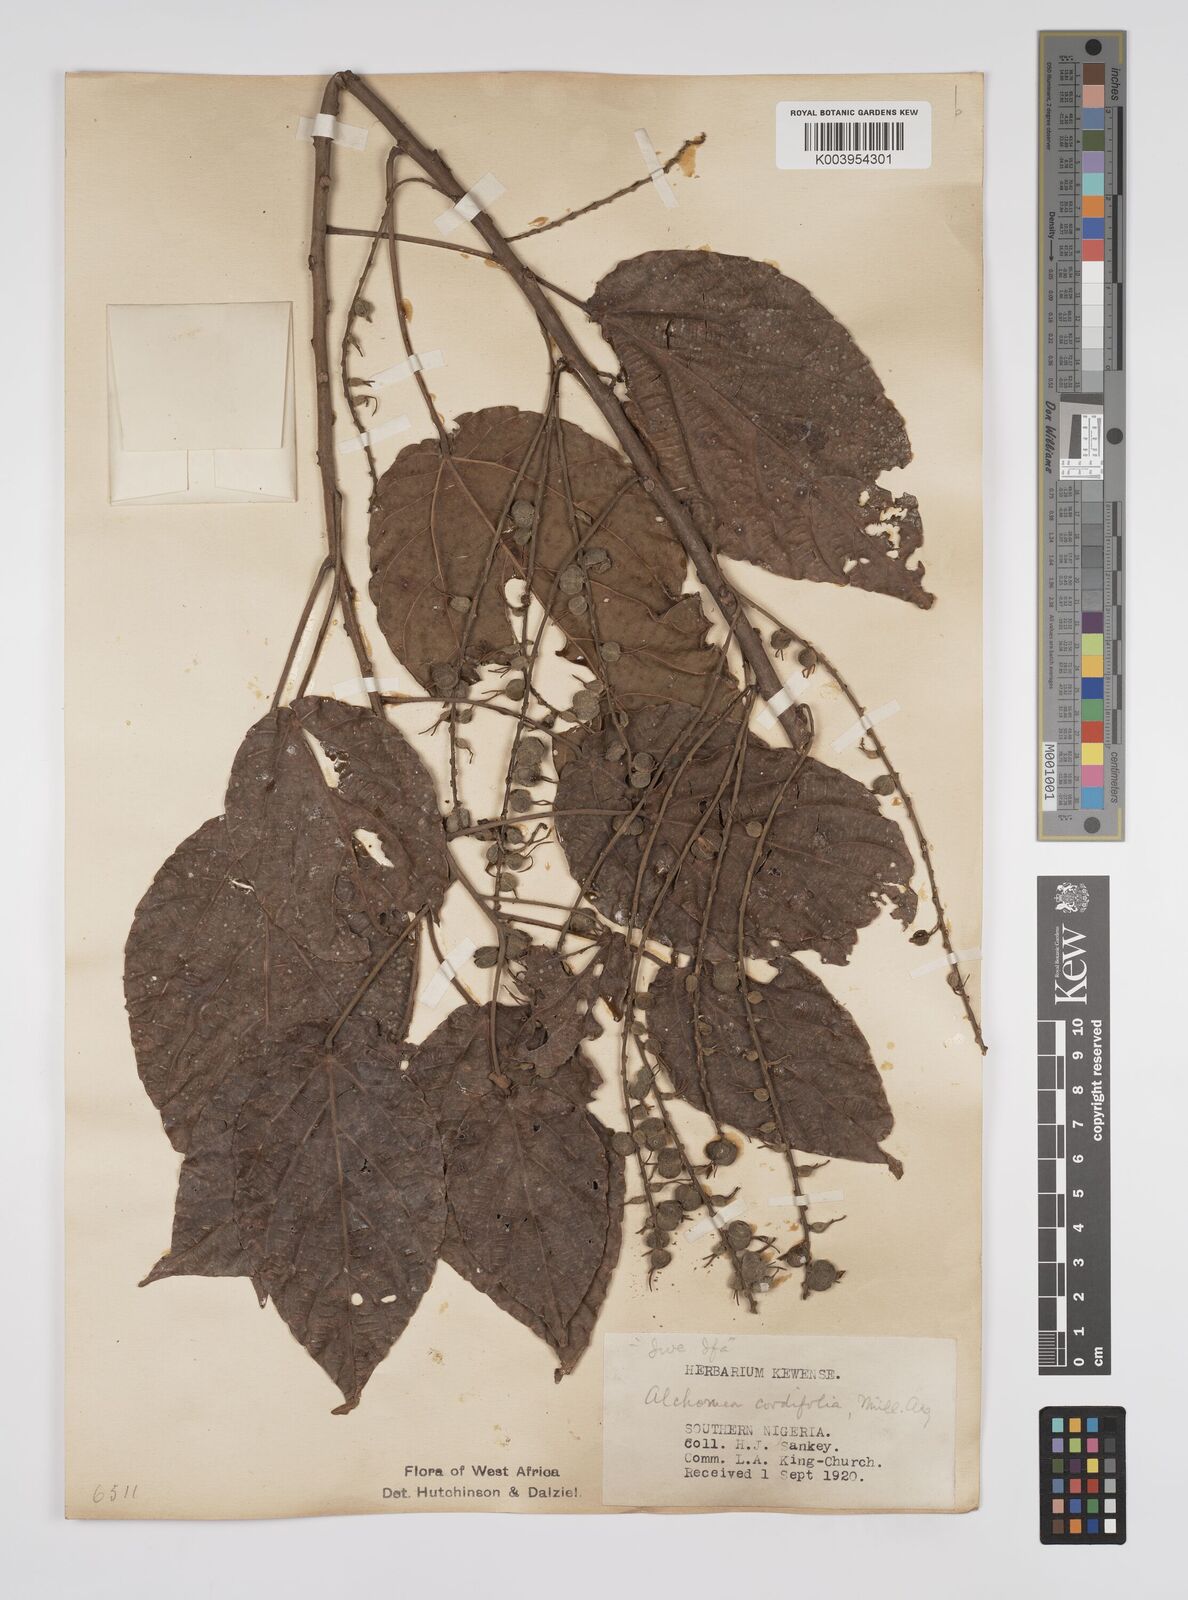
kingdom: Plantae
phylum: Tracheophyta
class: Magnoliopsida
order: Malpighiales
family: Euphorbiaceae
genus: Alchornea
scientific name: Alchornea cordifolia
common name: Christmasbush
